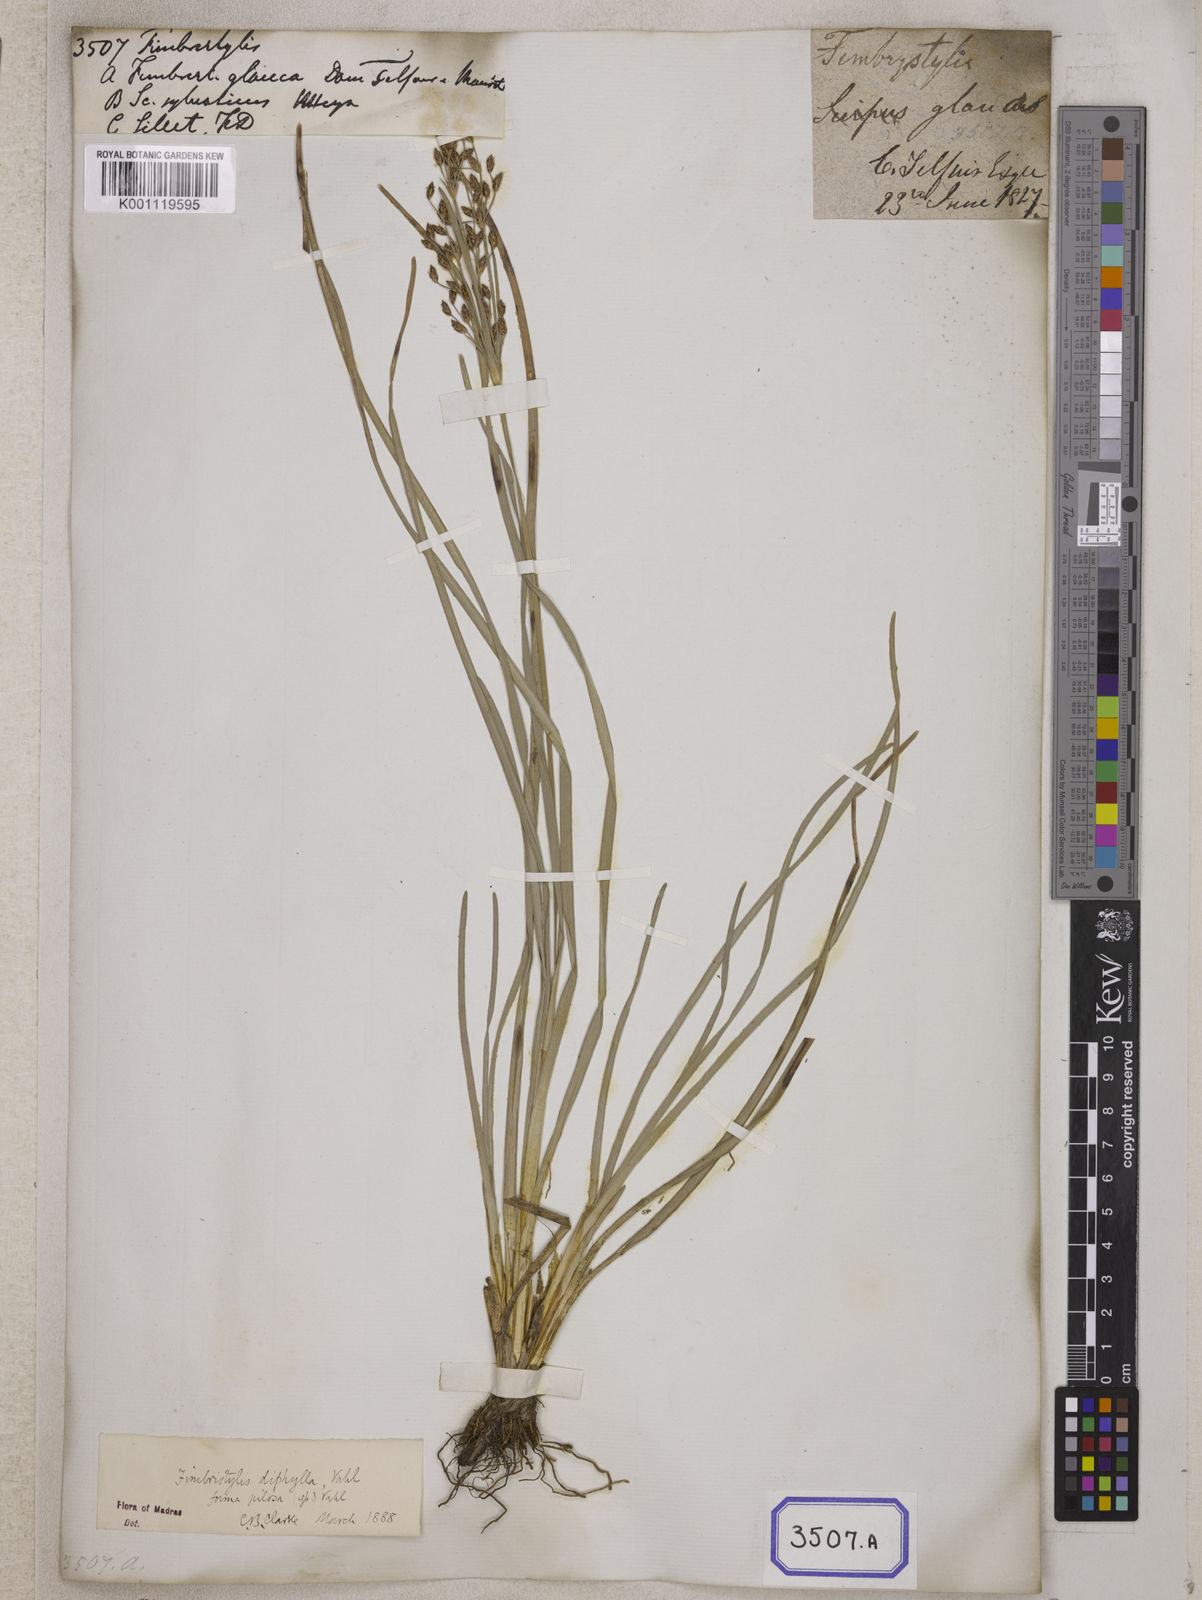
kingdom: Plantae
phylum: Tracheophyta
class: Liliopsida
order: Poales
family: Cyperaceae
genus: Fimbristylis
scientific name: Fimbristylis
